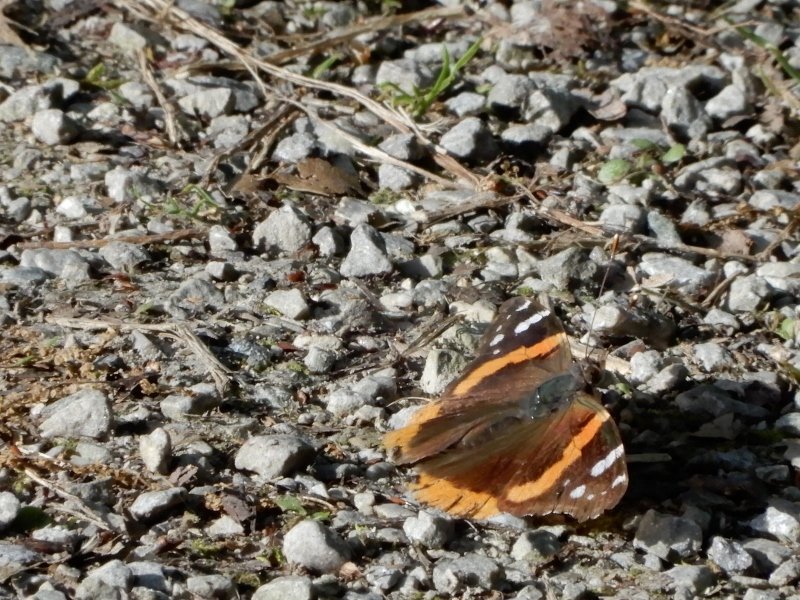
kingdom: Animalia
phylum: Arthropoda
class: Insecta
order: Lepidoptera
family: Nymphalidae
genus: Vanessa
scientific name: Vanessa atalanta
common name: Red Admiral
